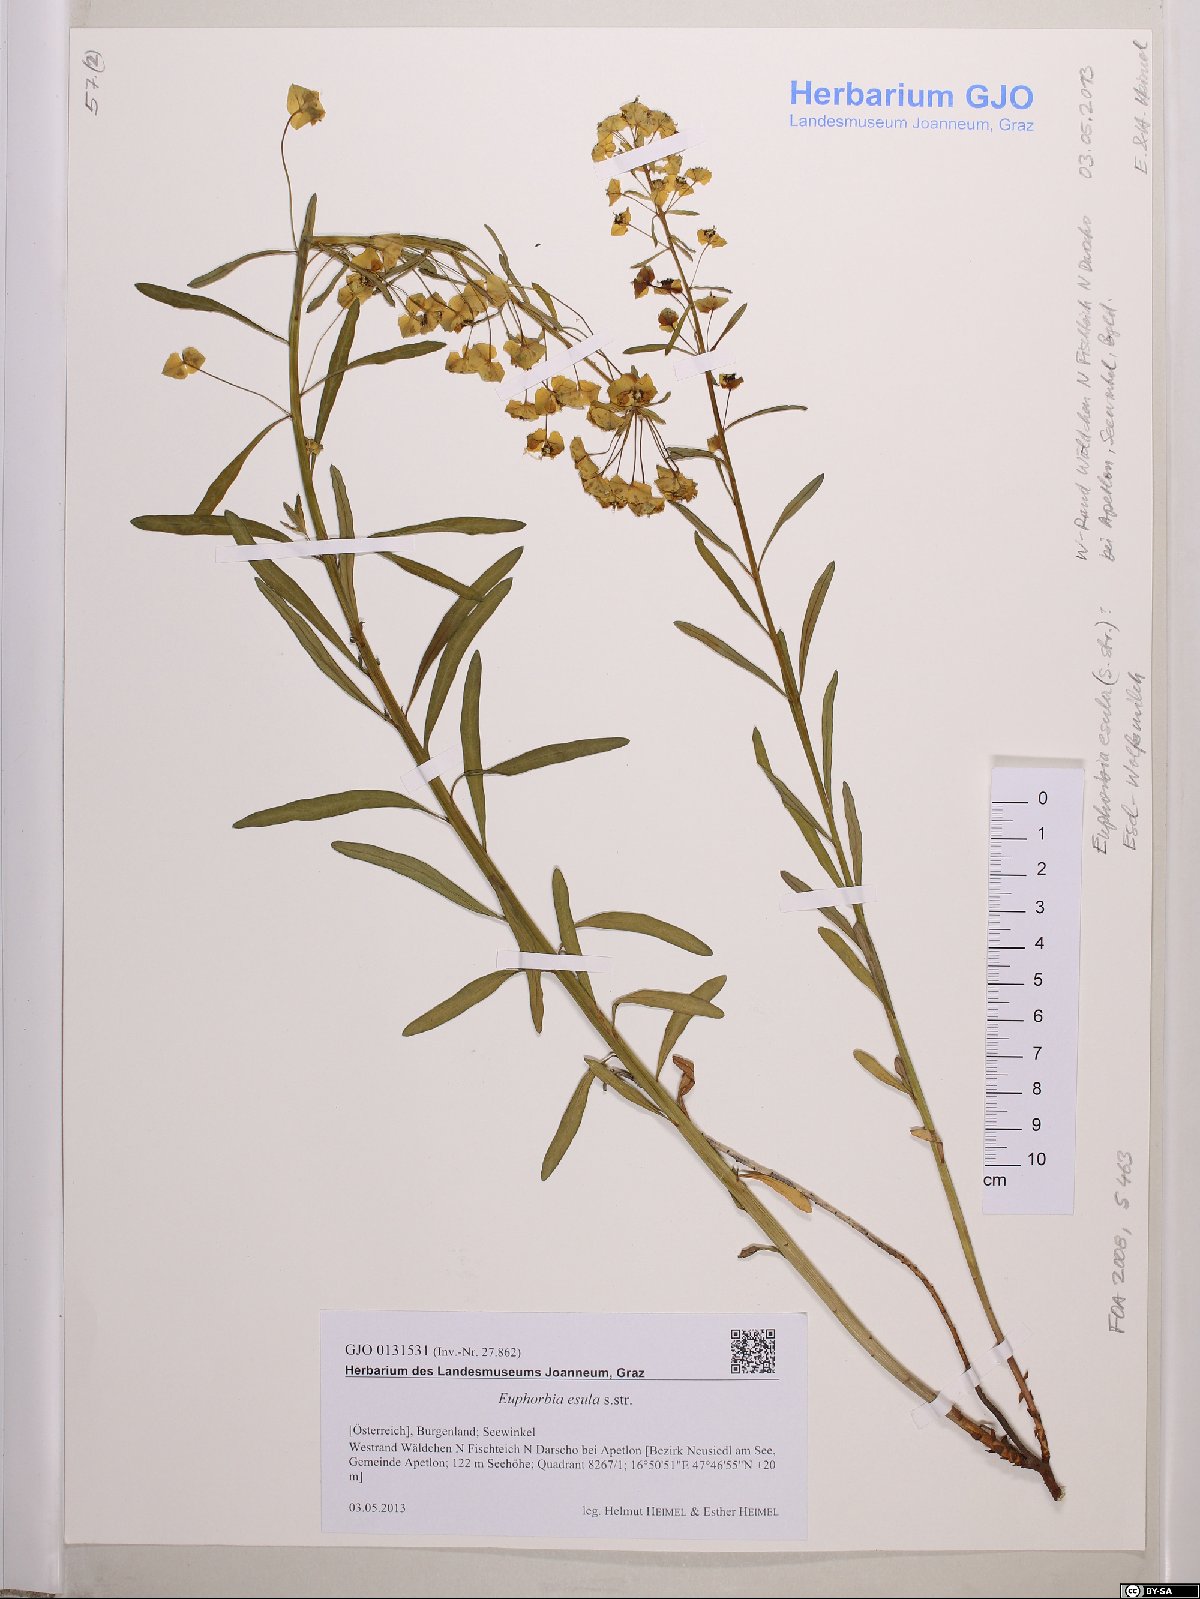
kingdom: Plantae
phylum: Tracheophyta
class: Magnoliopsida
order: Malpighiales
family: Euphorbiaceae
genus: Euphorbia
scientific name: Euphorbia esula
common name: Leafy spurge
